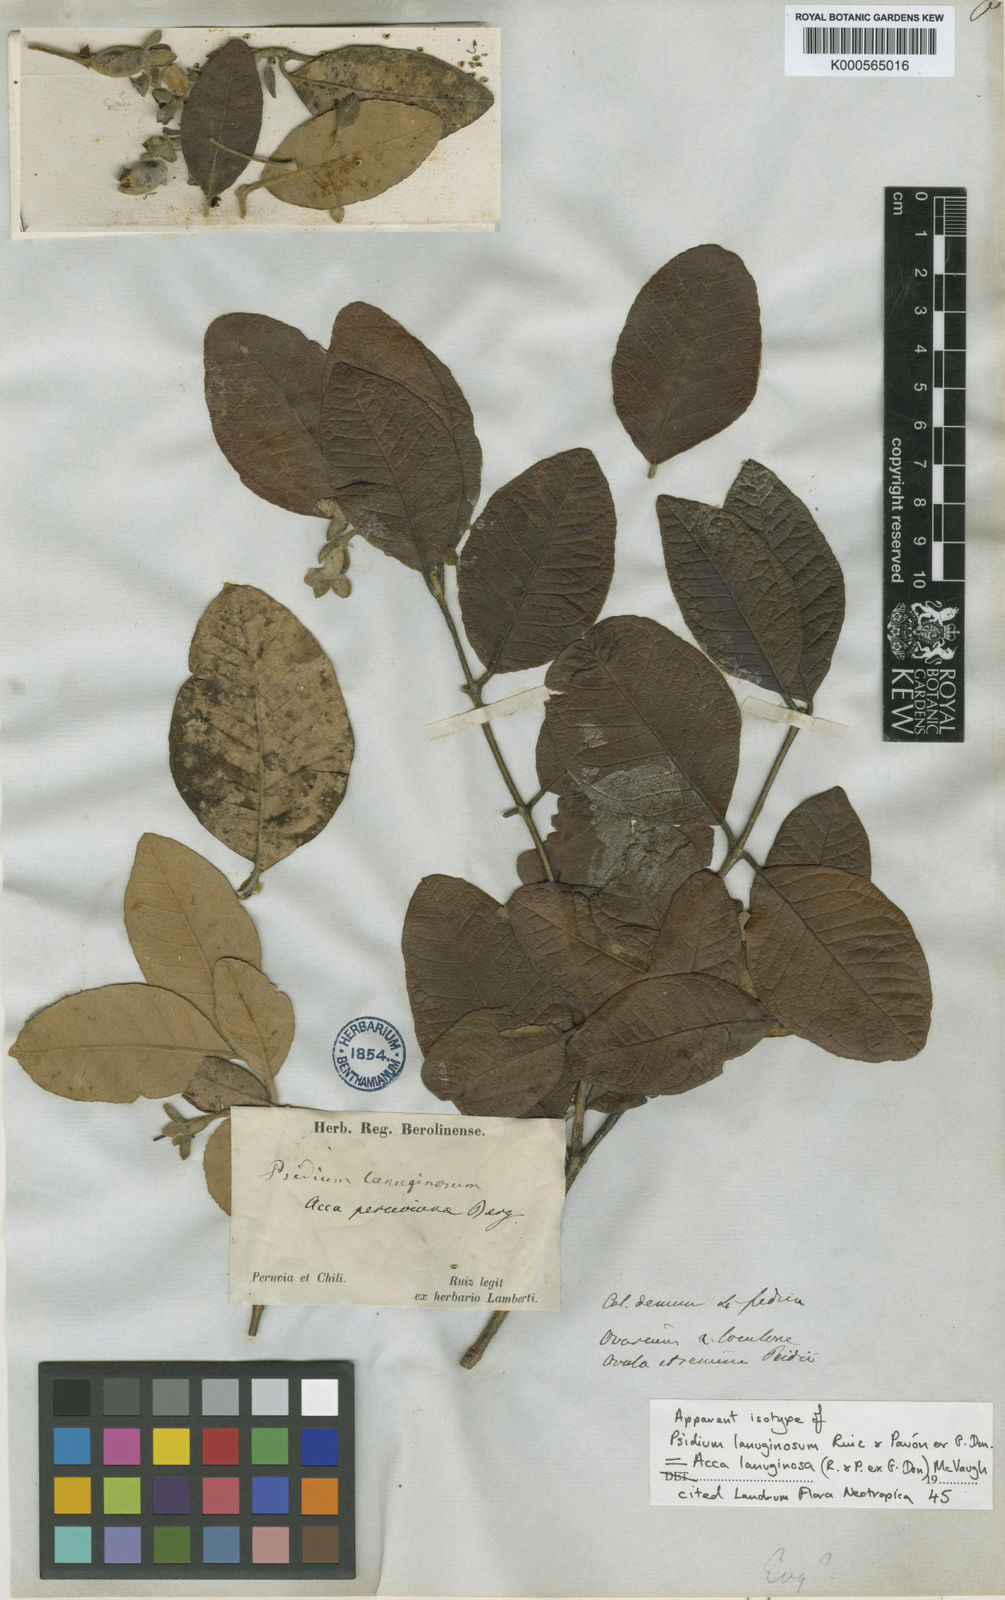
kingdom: Plantae
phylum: Tracheophyta
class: Magnoliopsida
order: Myrtales
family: Myrtaceae
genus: Acca
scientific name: Acca lanuginosa
